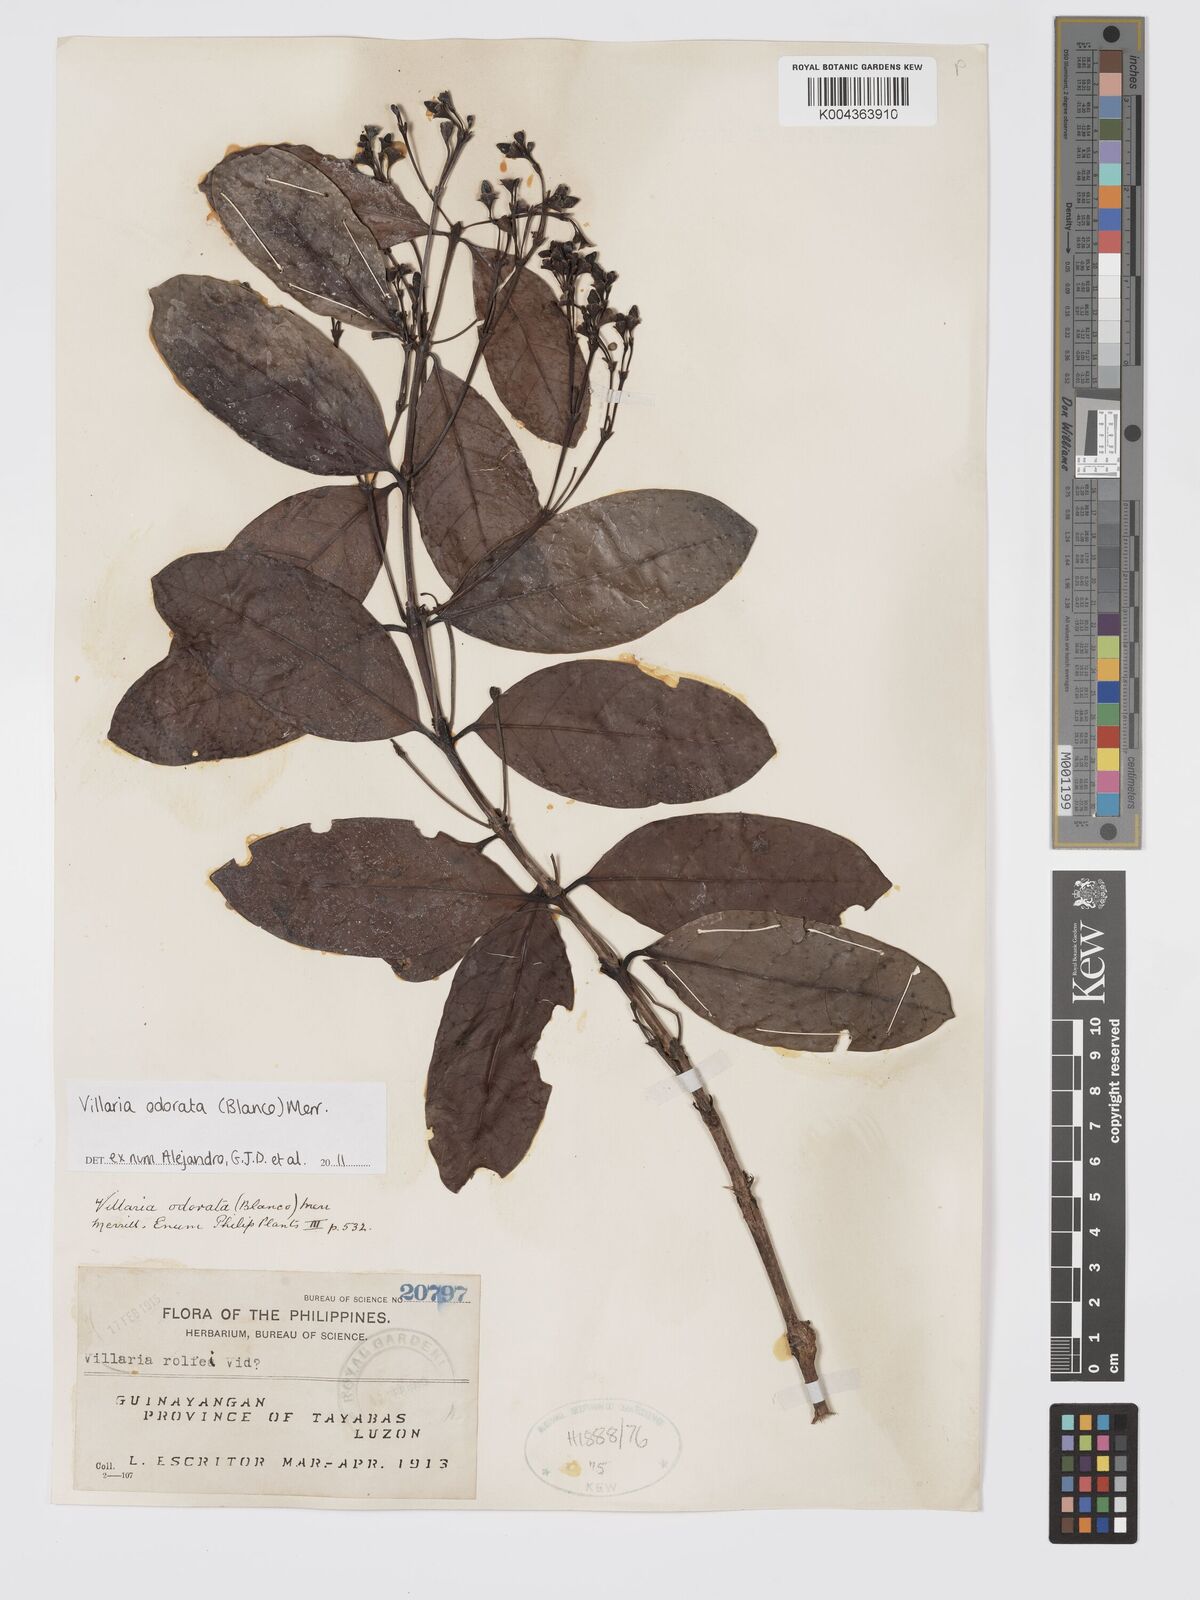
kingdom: Plantae
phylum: Tracheophyta
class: Magnoliopsida
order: Gentianales
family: Rubiaceae
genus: Villaria
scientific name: Villaria odorata
